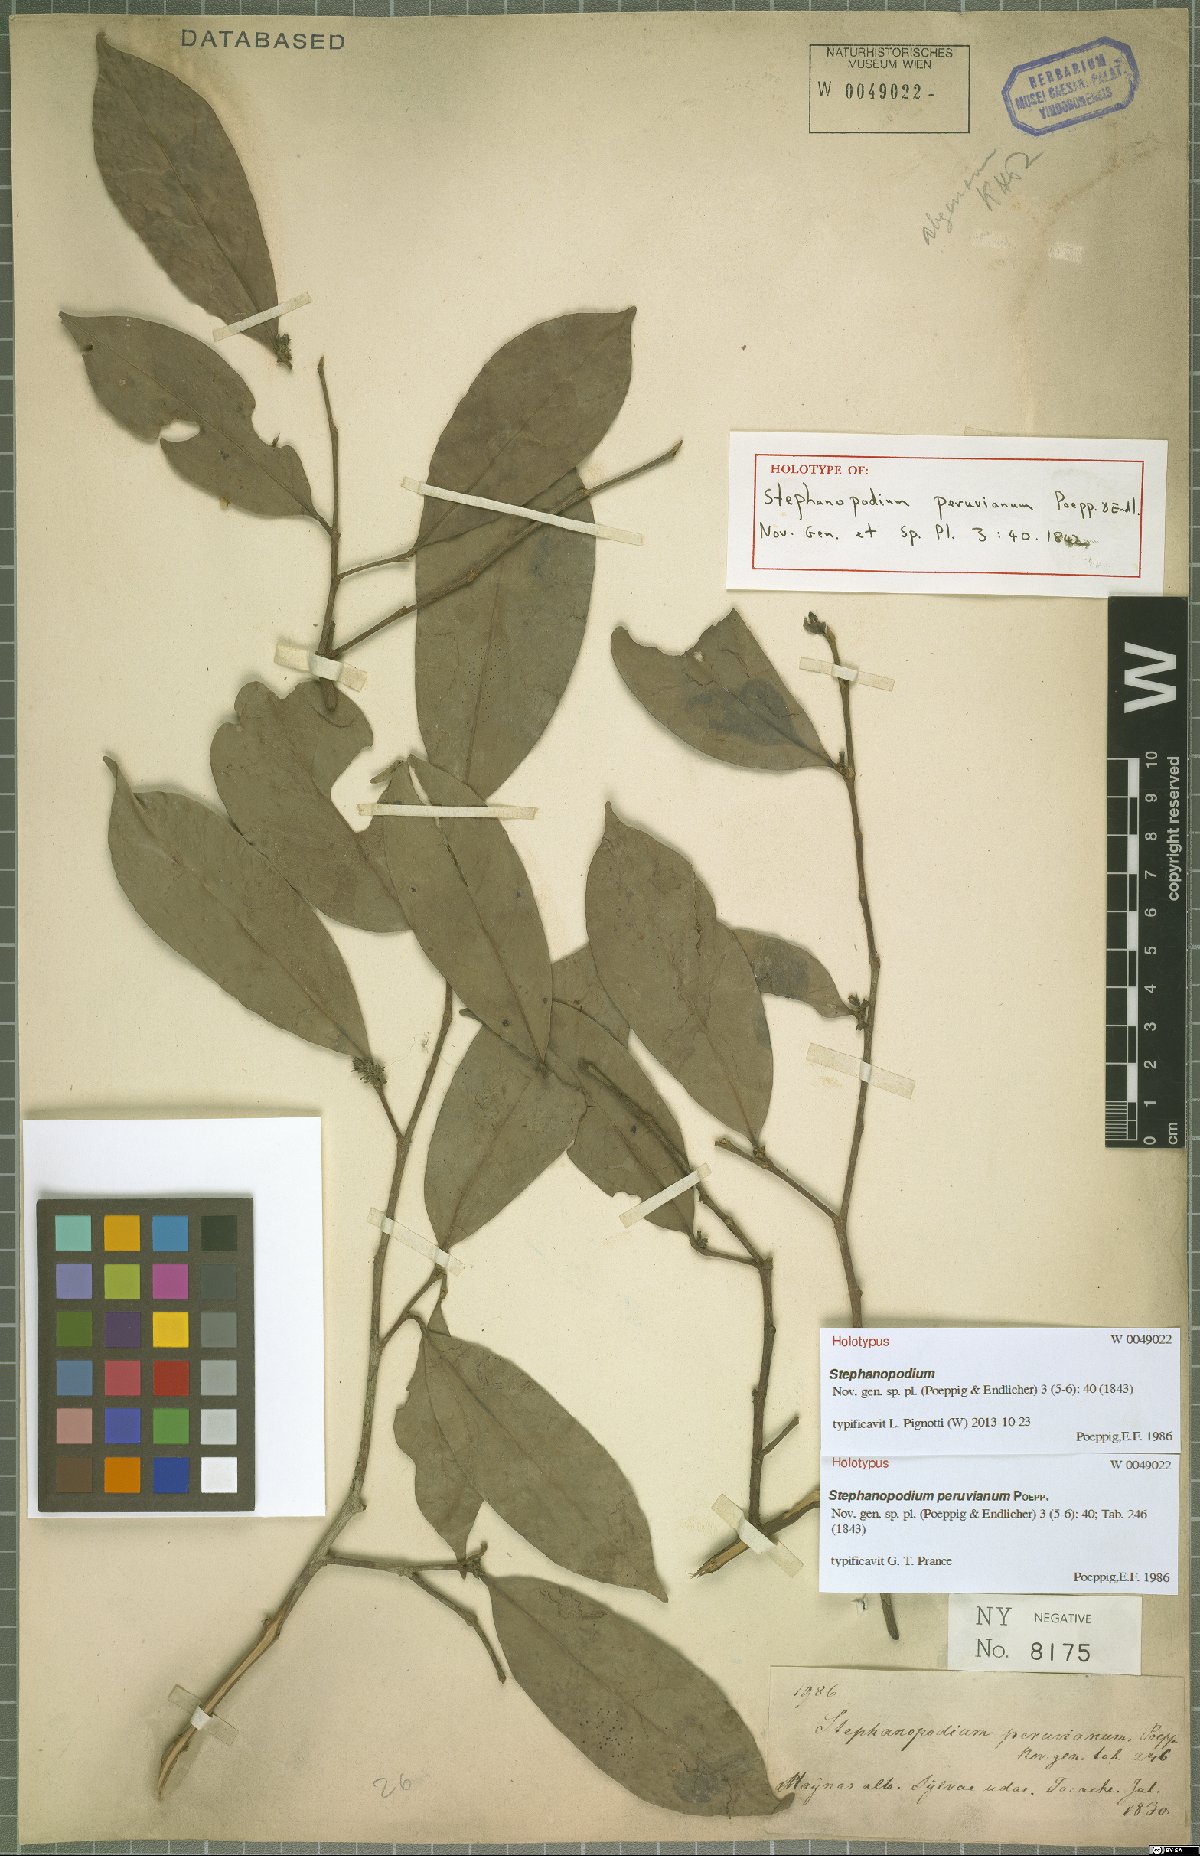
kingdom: Plantae
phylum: Tracheophyta
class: Magnoliopsida
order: Malpighiales
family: Dichapetalaceae
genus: Stephanopodium
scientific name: Stephanopodium peruvianum
